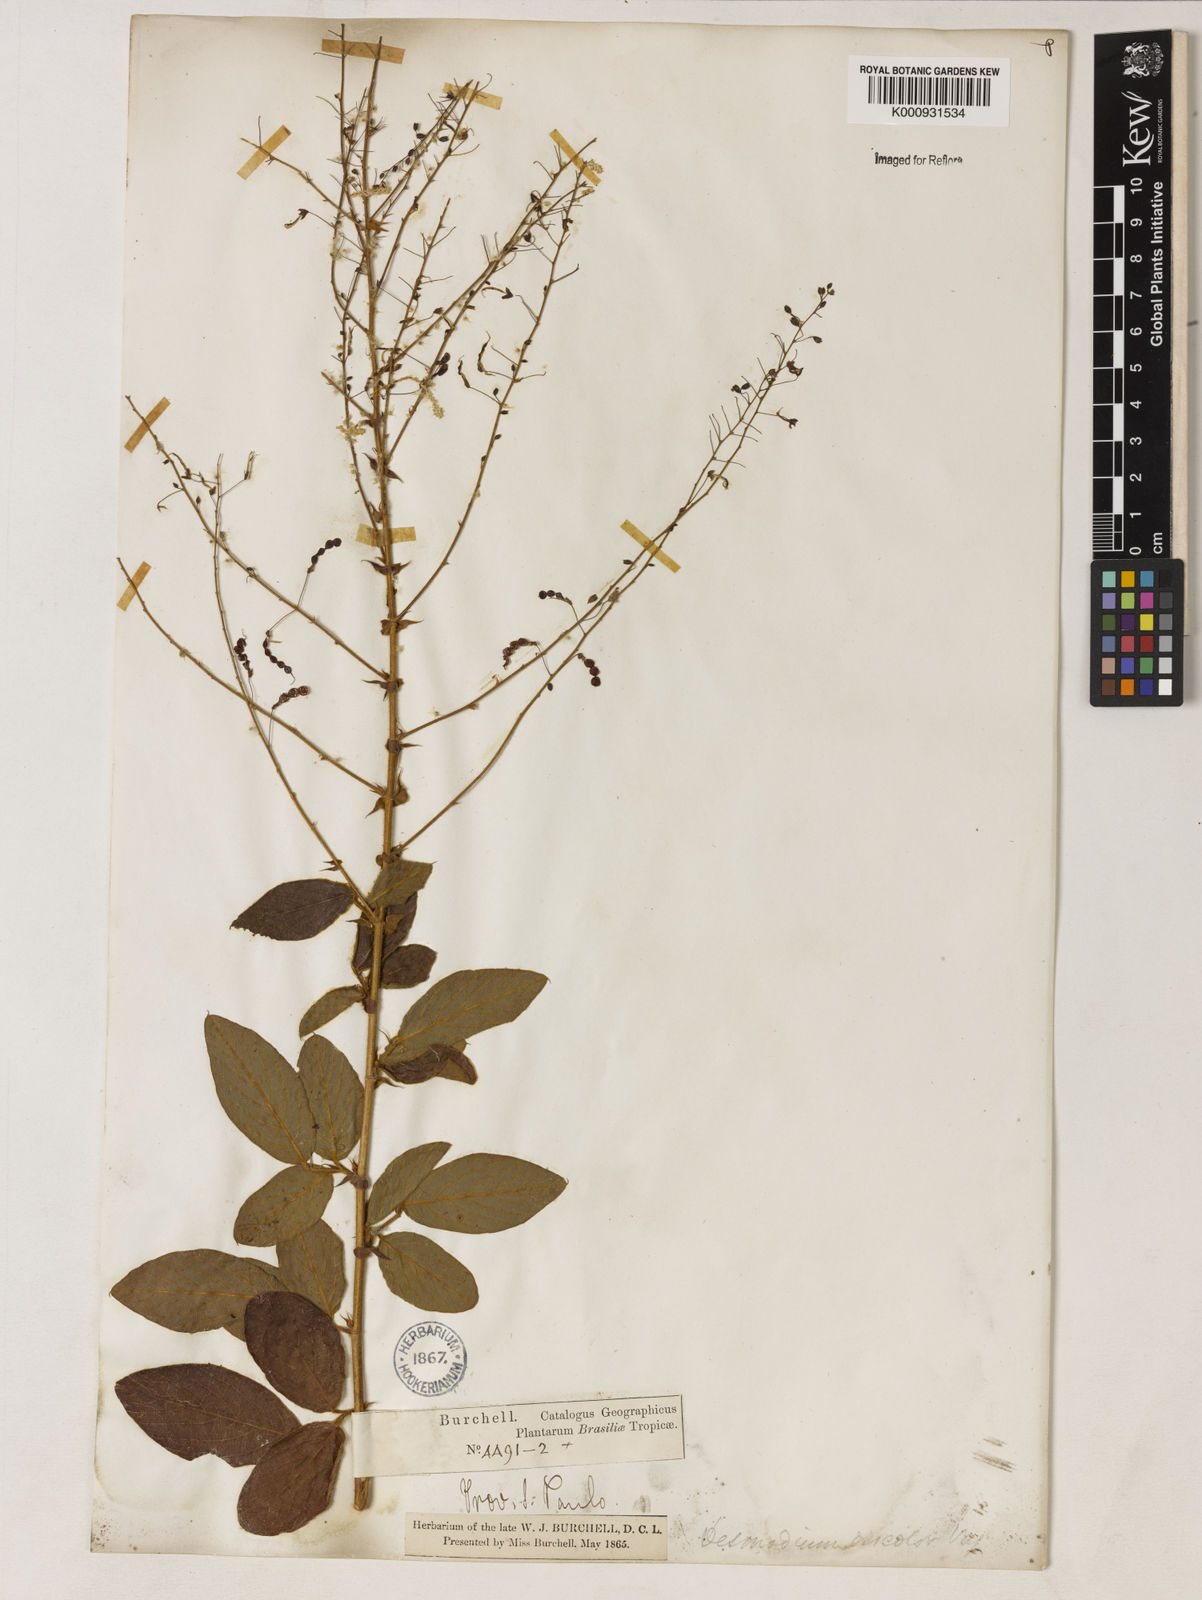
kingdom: Plantae
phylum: Tracheophyta
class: Magnoliopsida
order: Fabales
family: Fabaceae
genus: Desmodium
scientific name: Desmodium subsecundum
